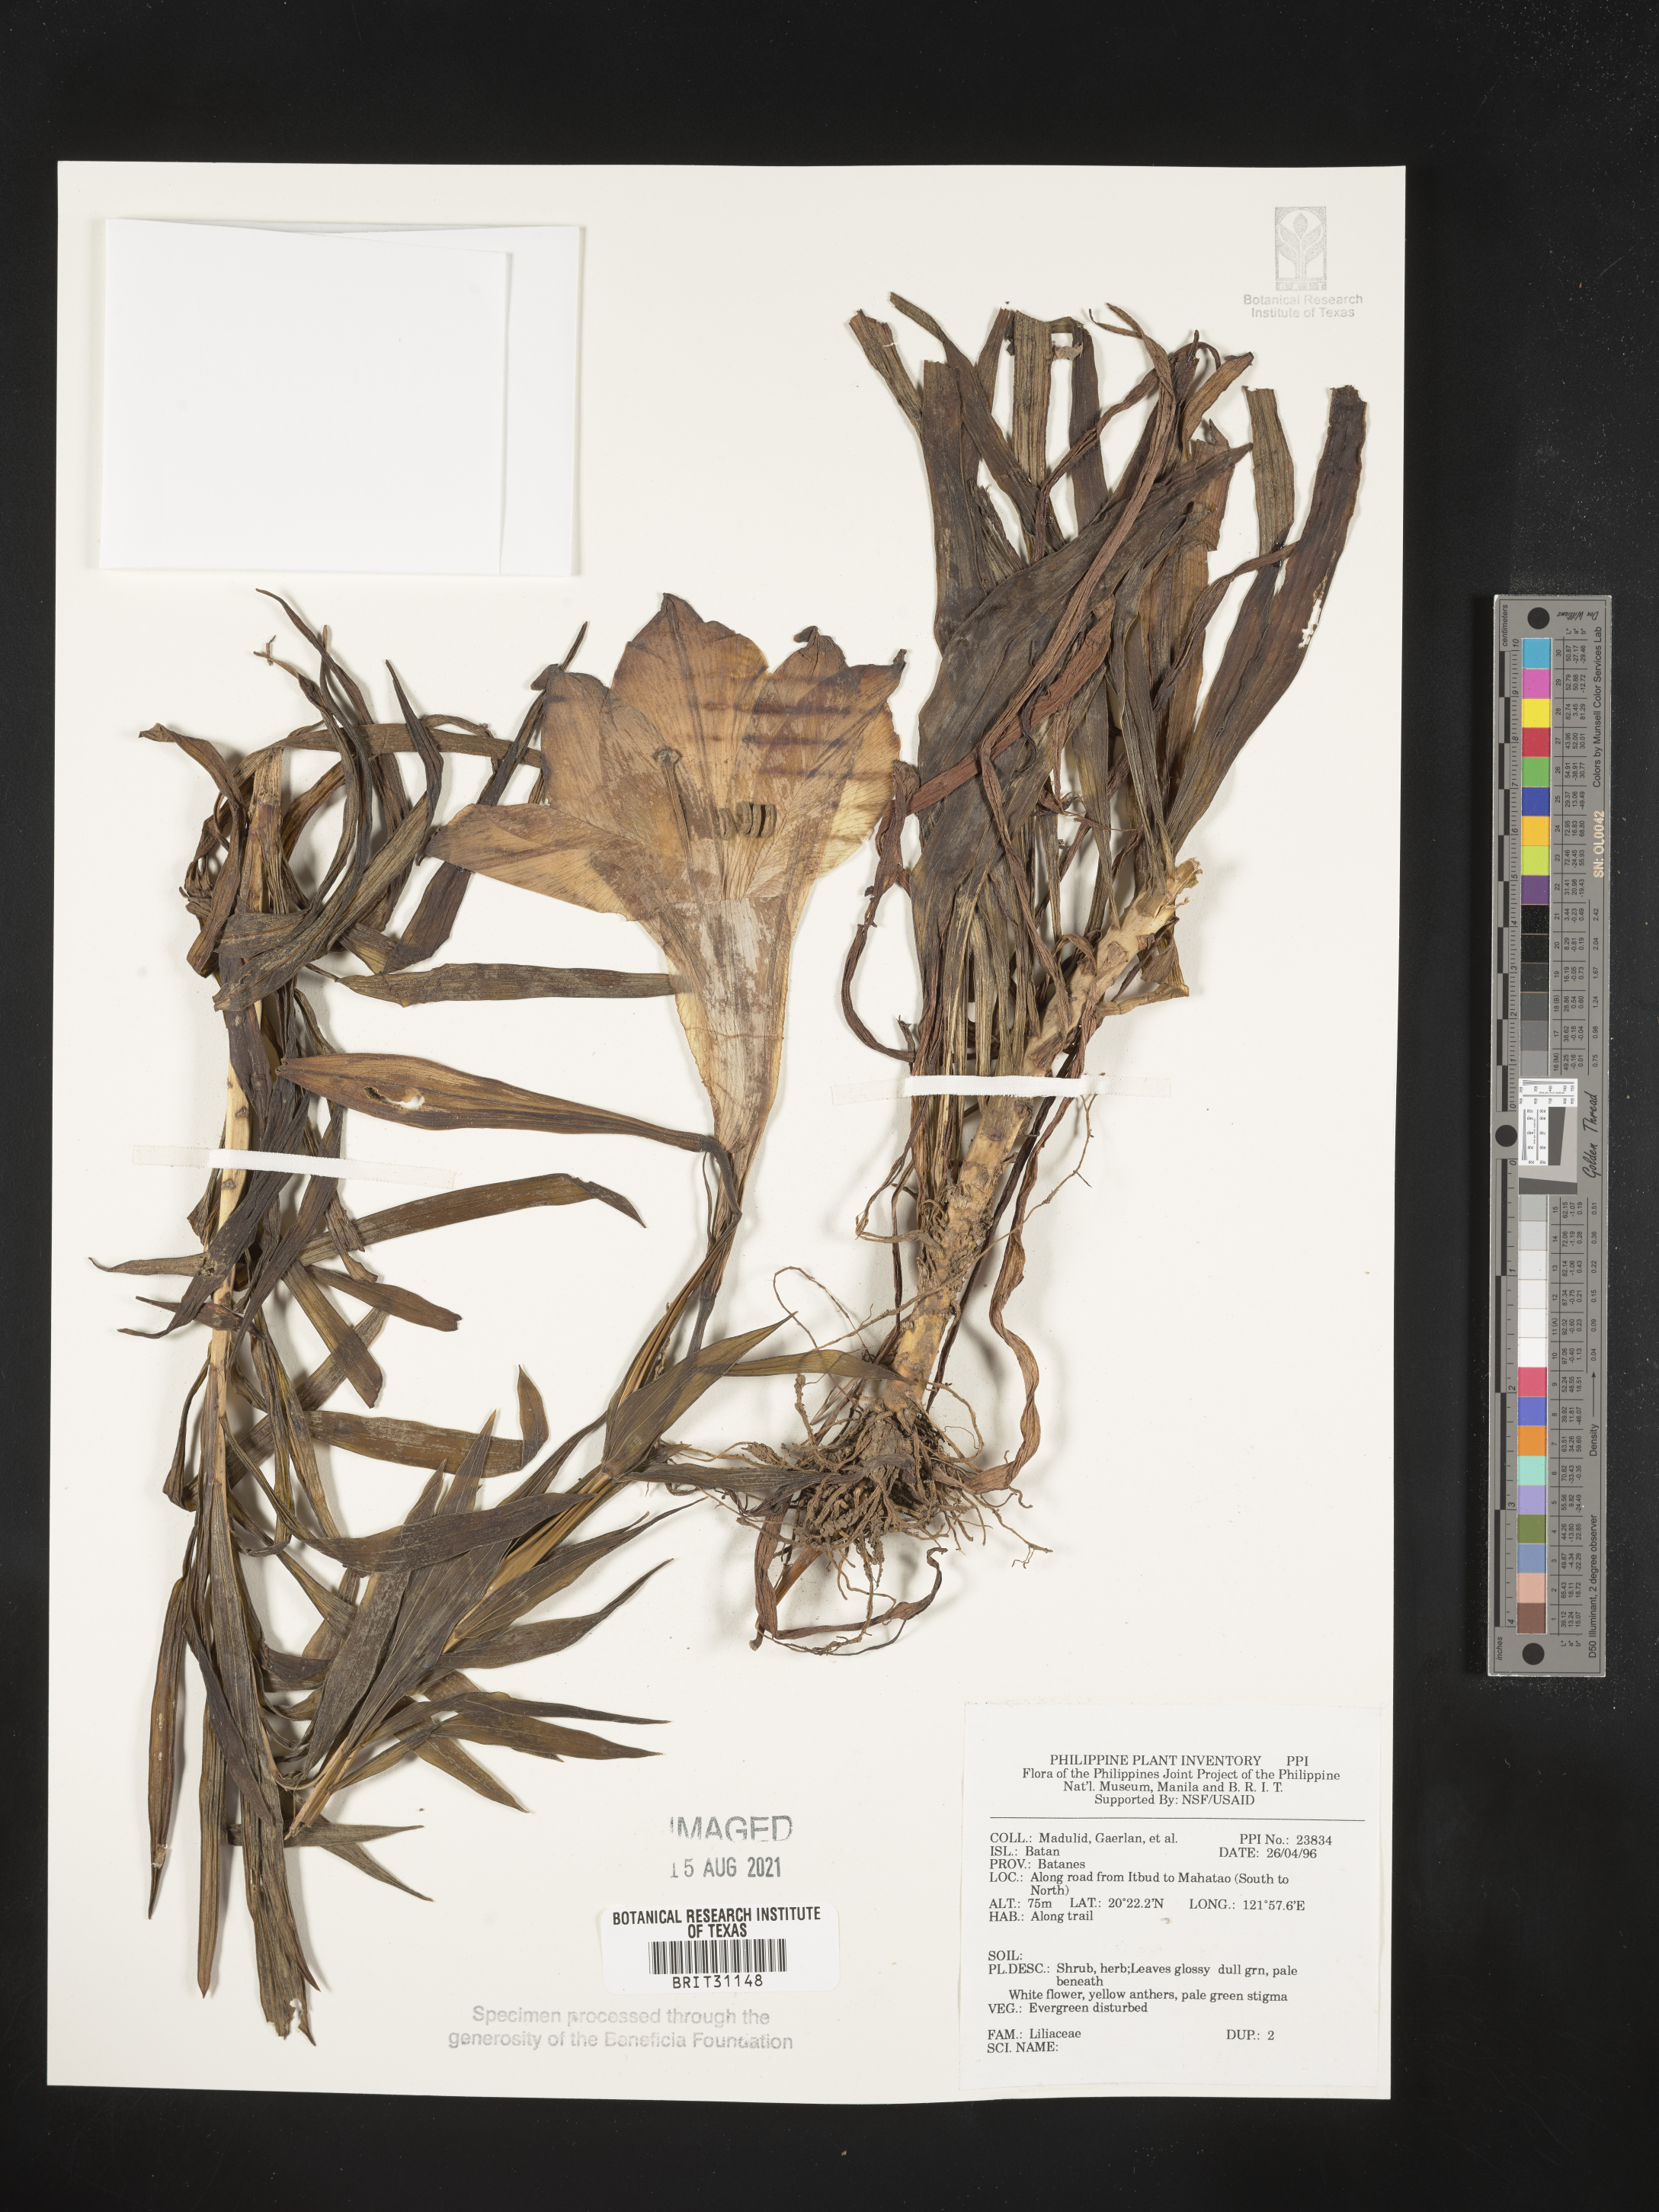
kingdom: Plantae
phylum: Tracheophyta
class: Liliopsida
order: Liliales
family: Liliaceae
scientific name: Liliaceae
